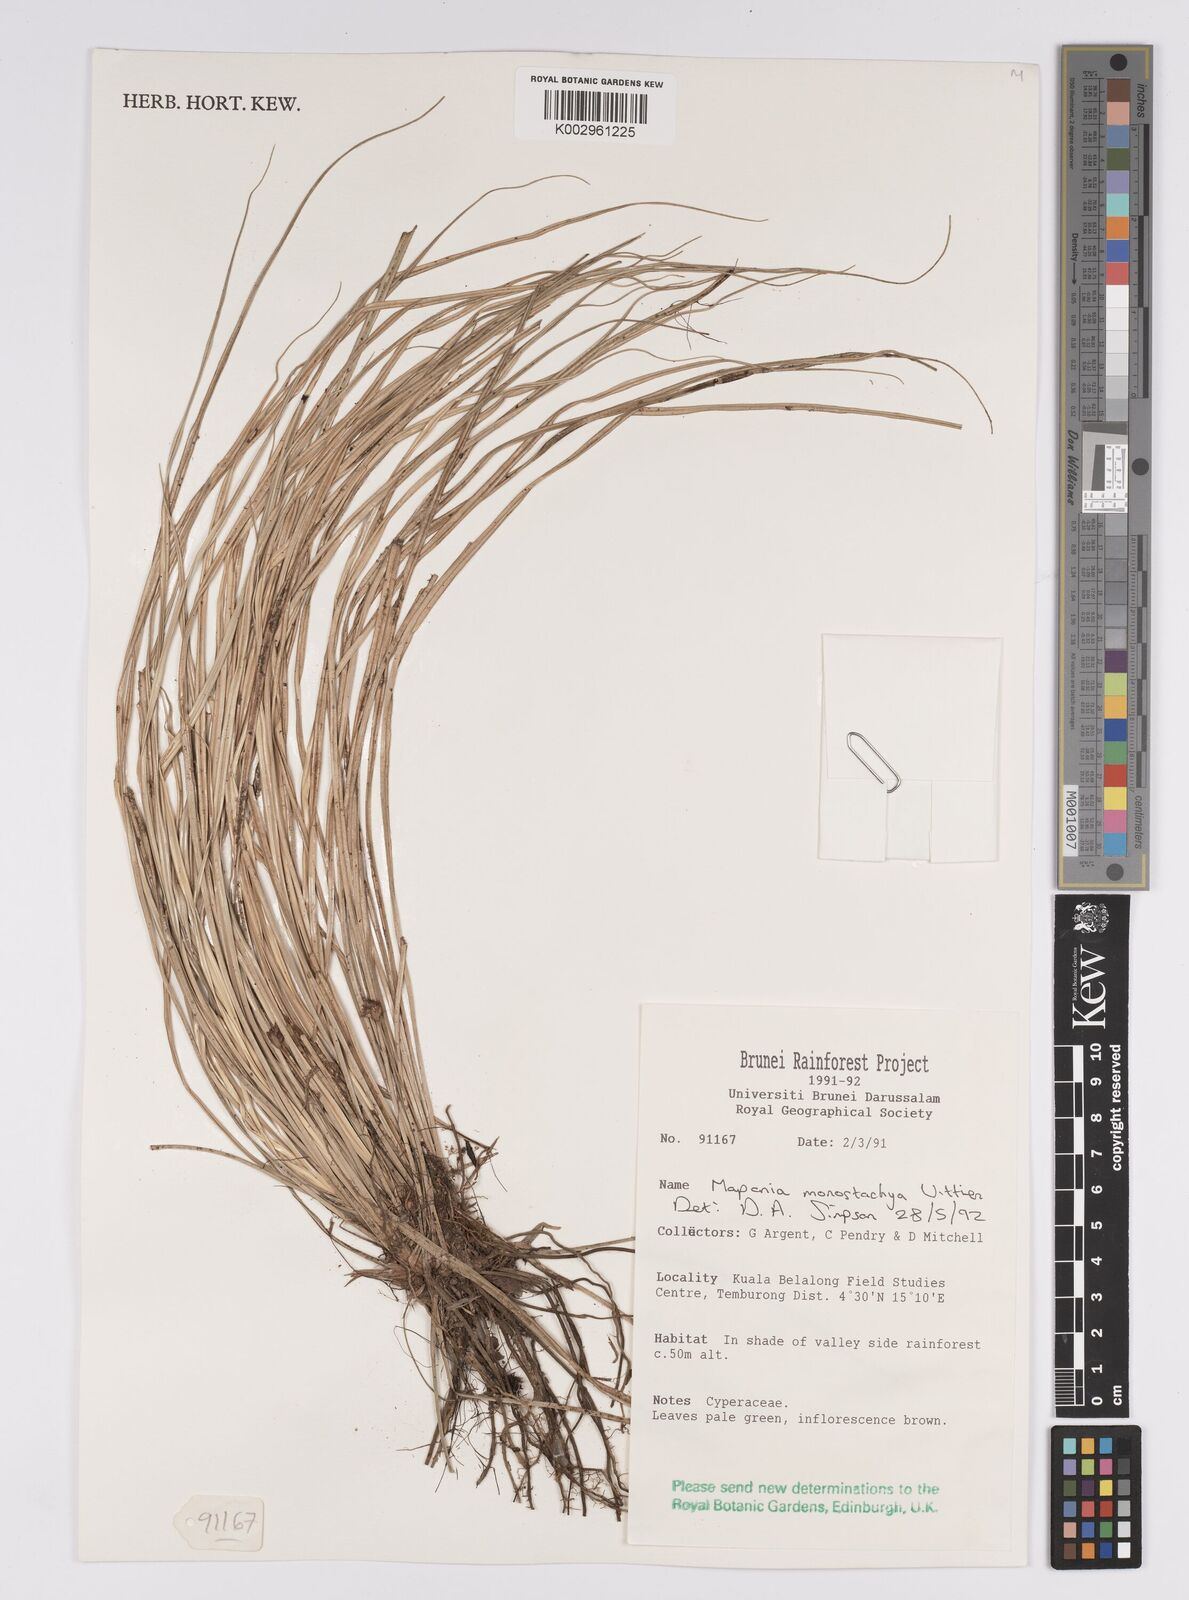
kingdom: Plantae
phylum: Tracheophyta
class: Liliopsida
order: Poales
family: Cyperaceae
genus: Mapania
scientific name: Mapania monostachya
